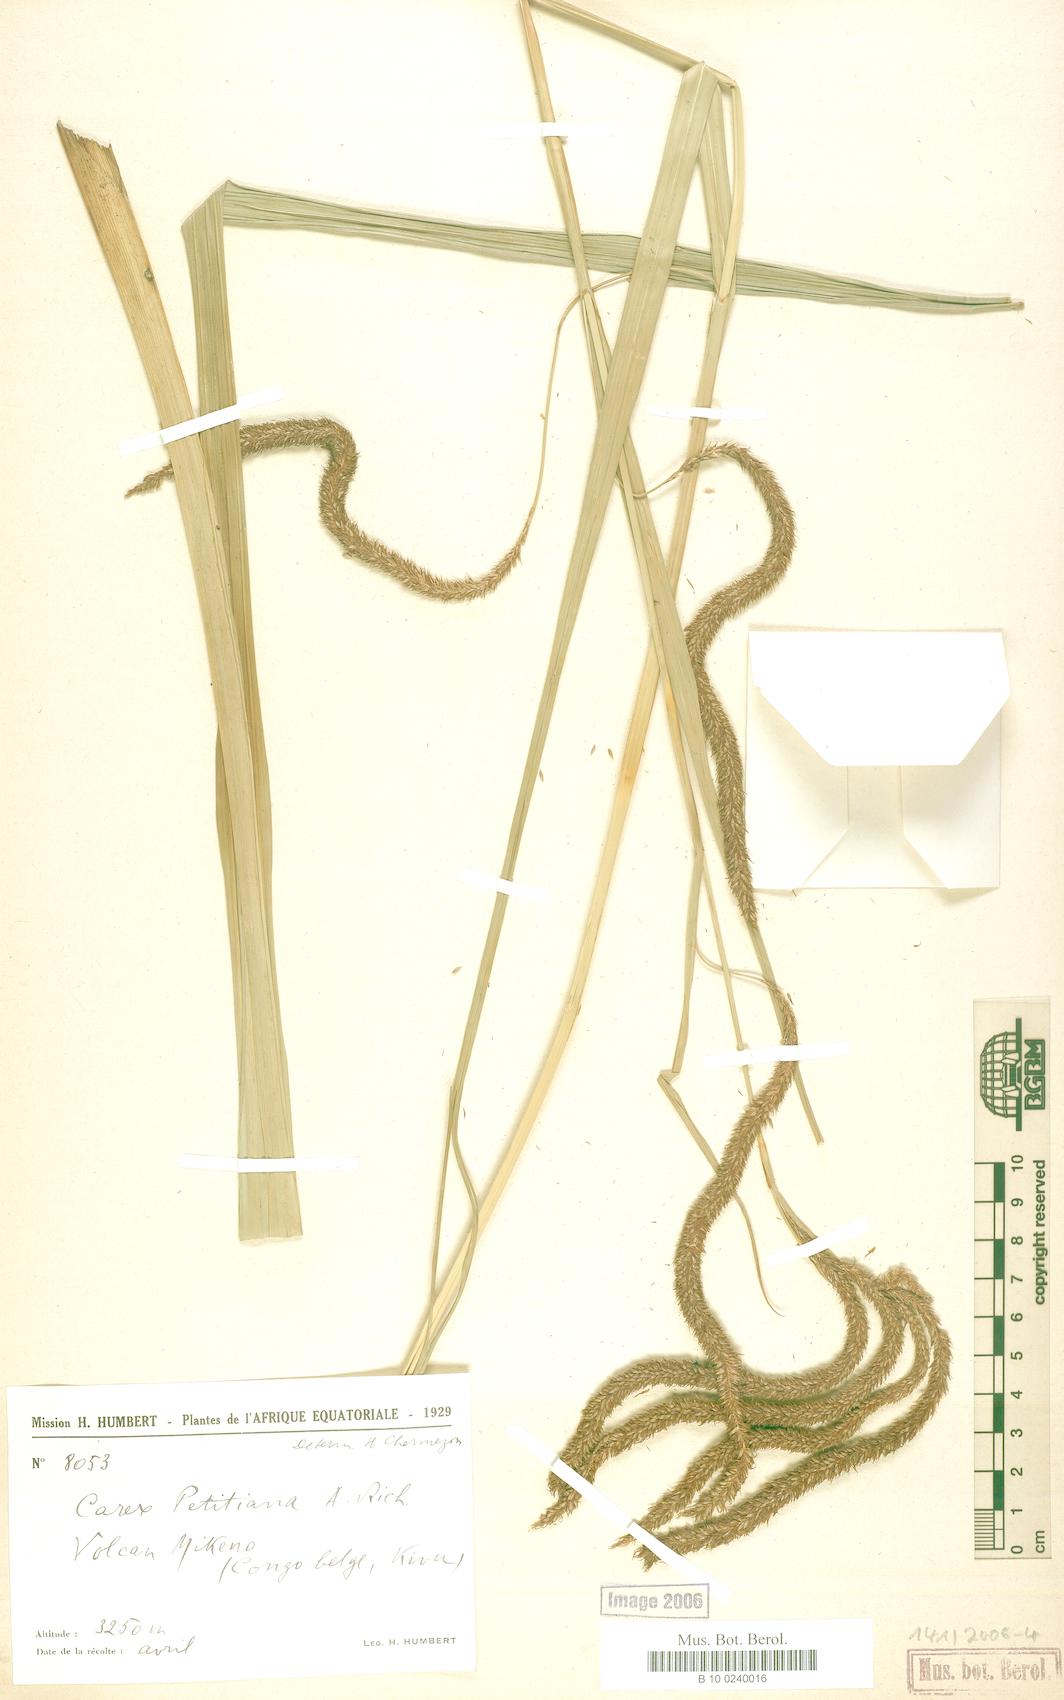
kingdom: Plantae
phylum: Tracheophyta
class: Liliopsida
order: Poales
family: Cyperaceae
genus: Carex
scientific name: Carex petitiana
